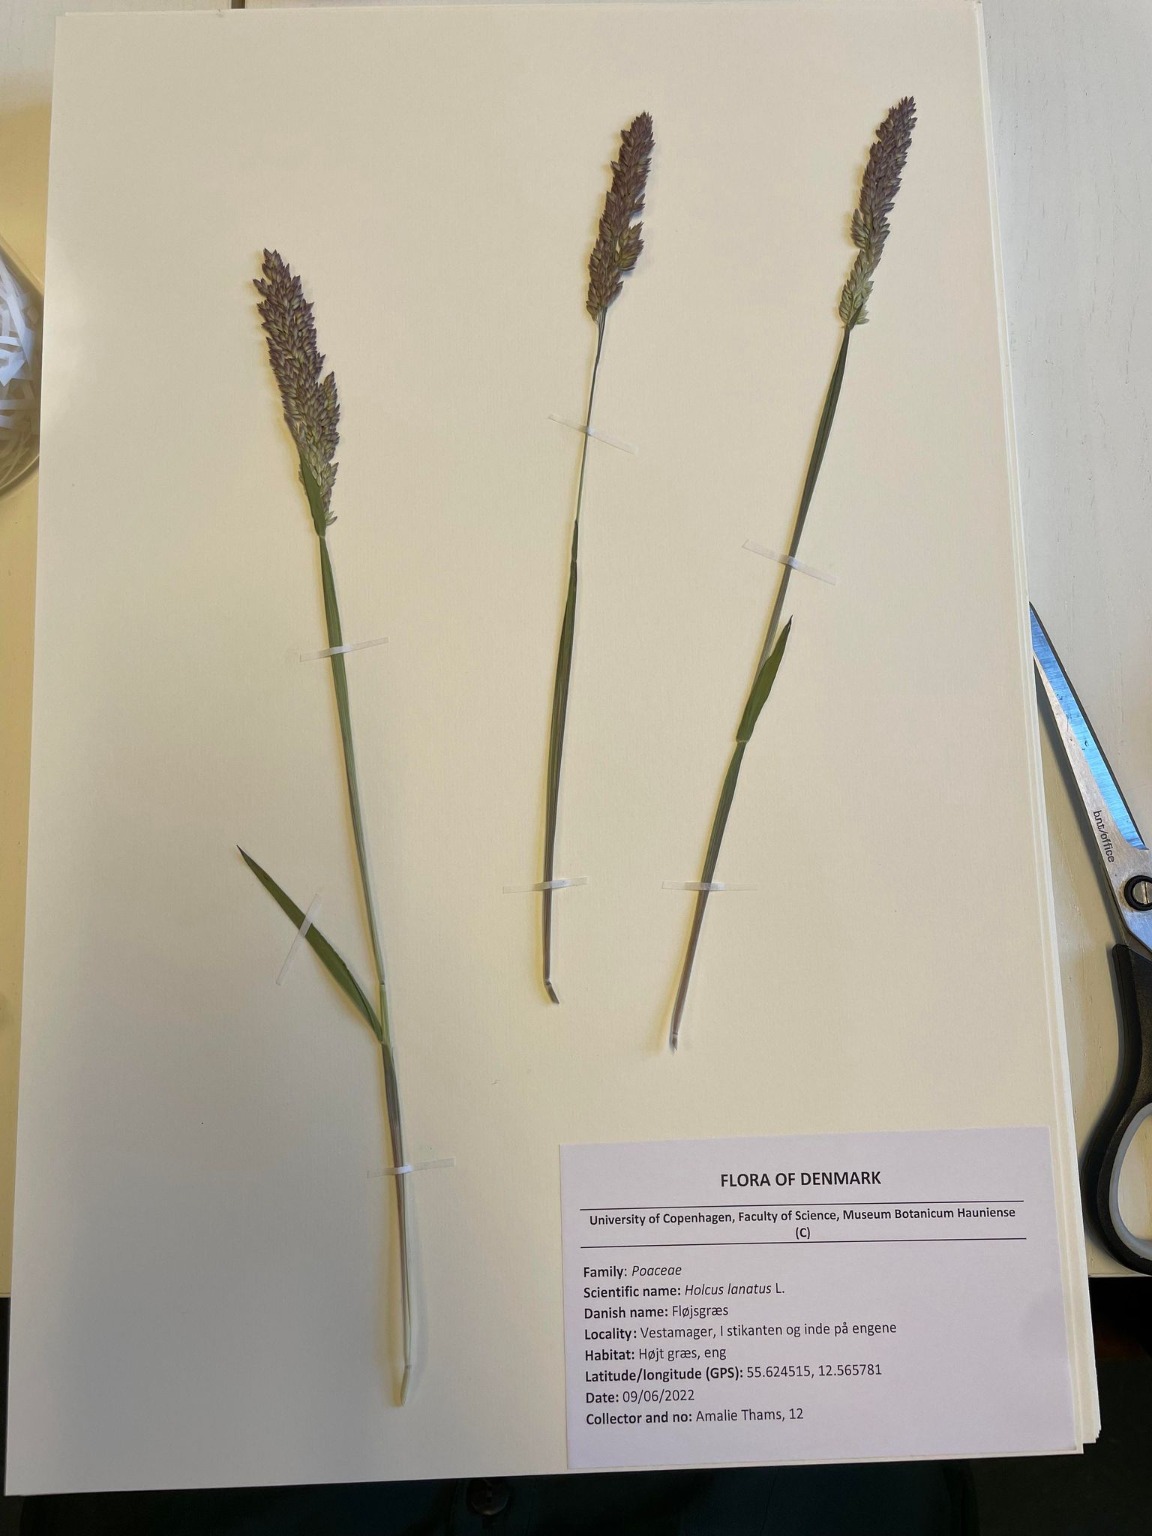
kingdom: Plantae
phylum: Tracheophyta
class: Liliopsida
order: Poales
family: Poaceae
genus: Holcus
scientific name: Holcus lanatus
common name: Fløjlsgræs
